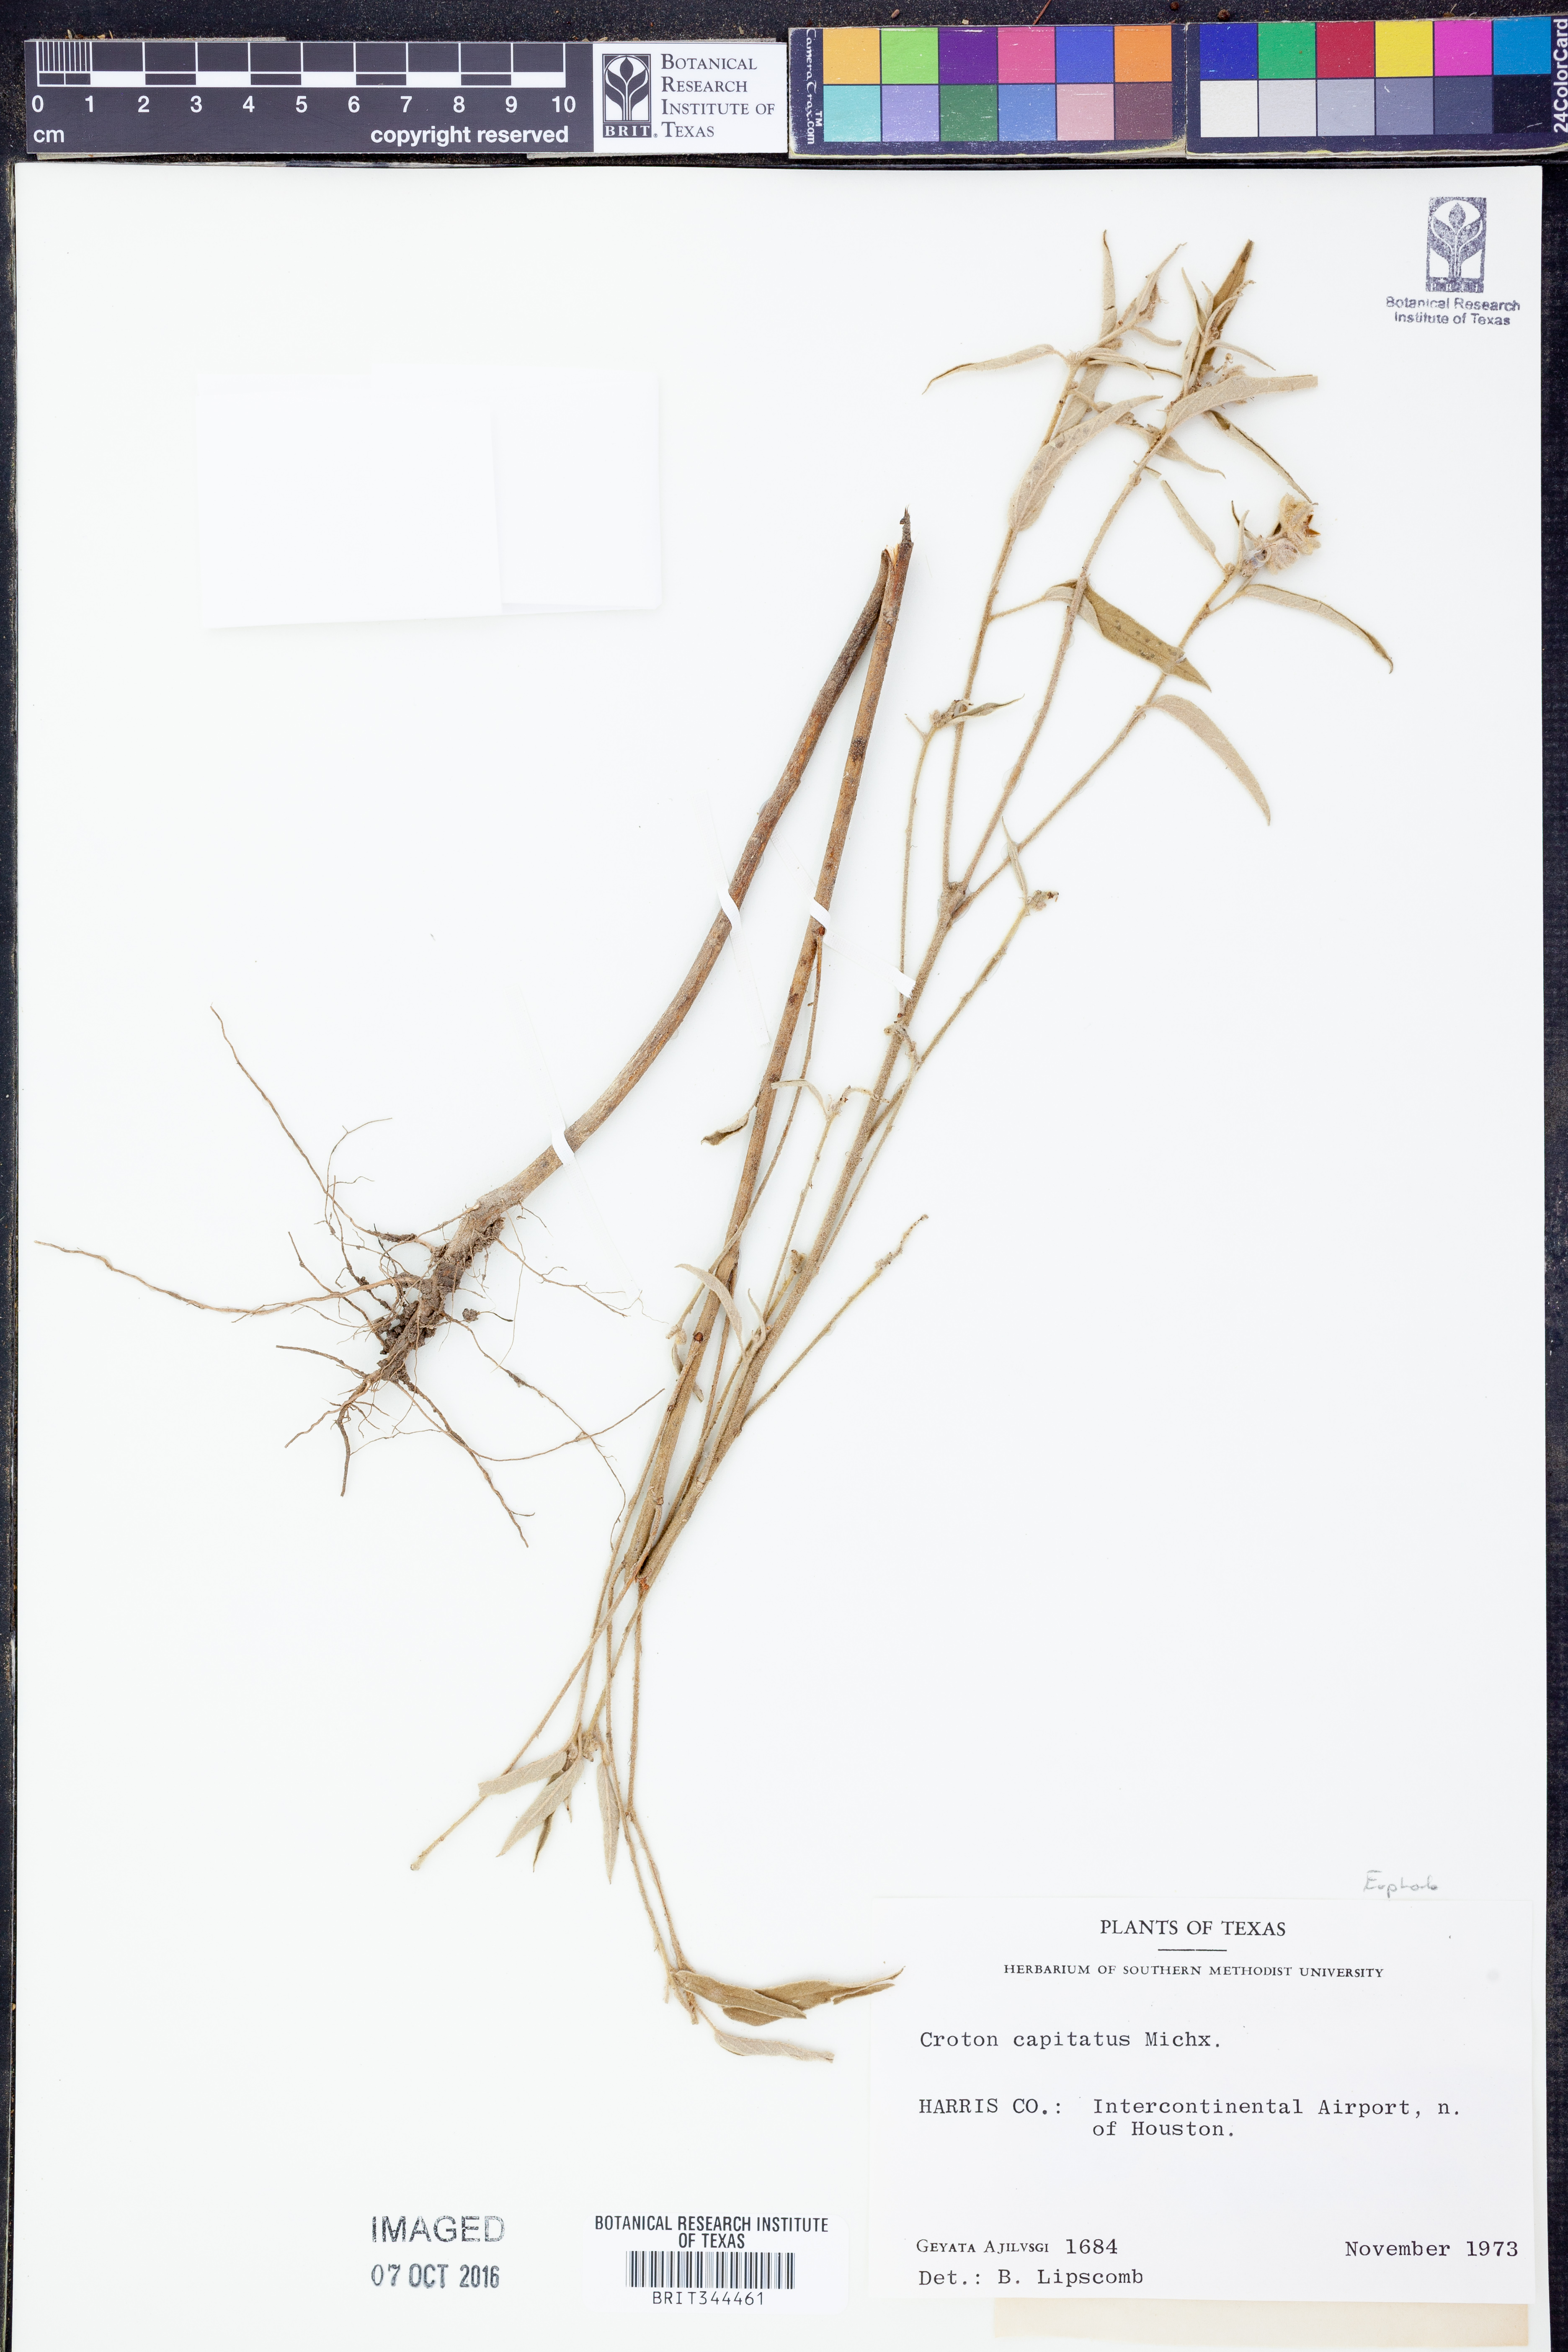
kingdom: Plantae
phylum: Tracheophyta
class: Magnoliopsida
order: Malpighiales
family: Euphorbiaceae
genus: Croton
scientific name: Croton capitatus
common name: Woolly croton
